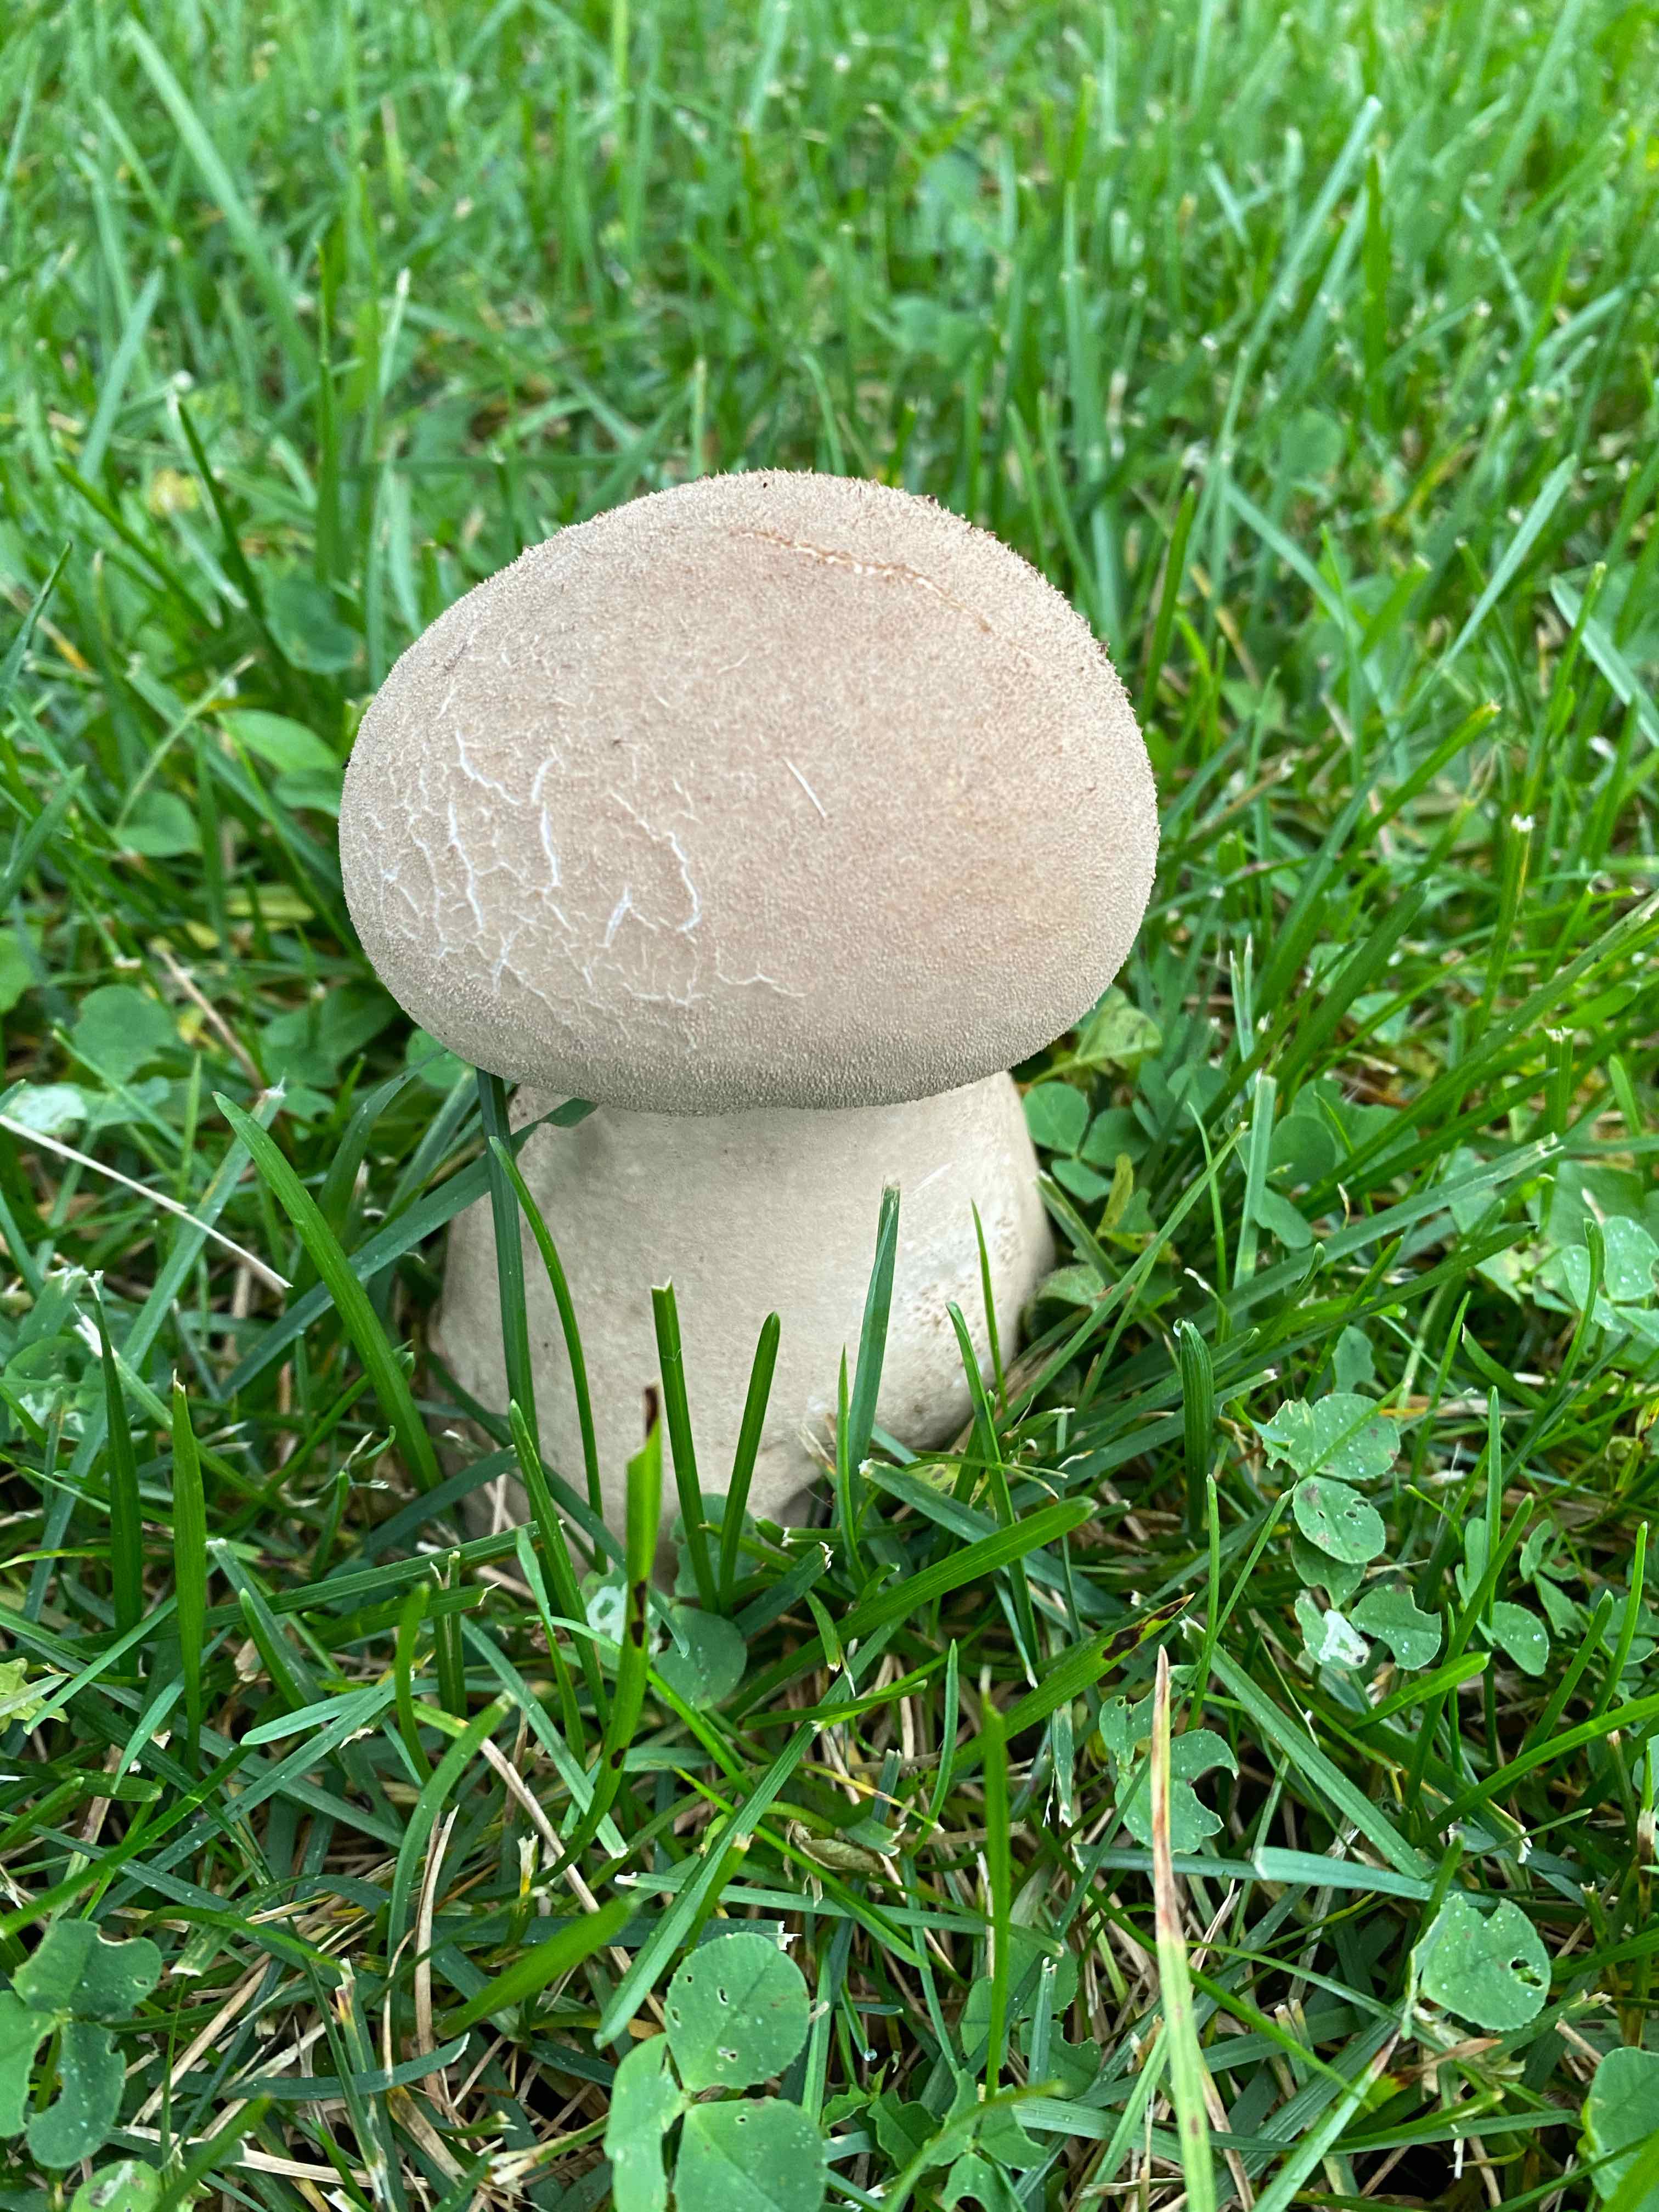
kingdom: Fungi
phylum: Basidiomycota
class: Agaricomycetes
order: Agaricales
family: Lycoperdaceae
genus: Lycoperdon
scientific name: Lycoperdon excipuliforme
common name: højstokket støvbold
